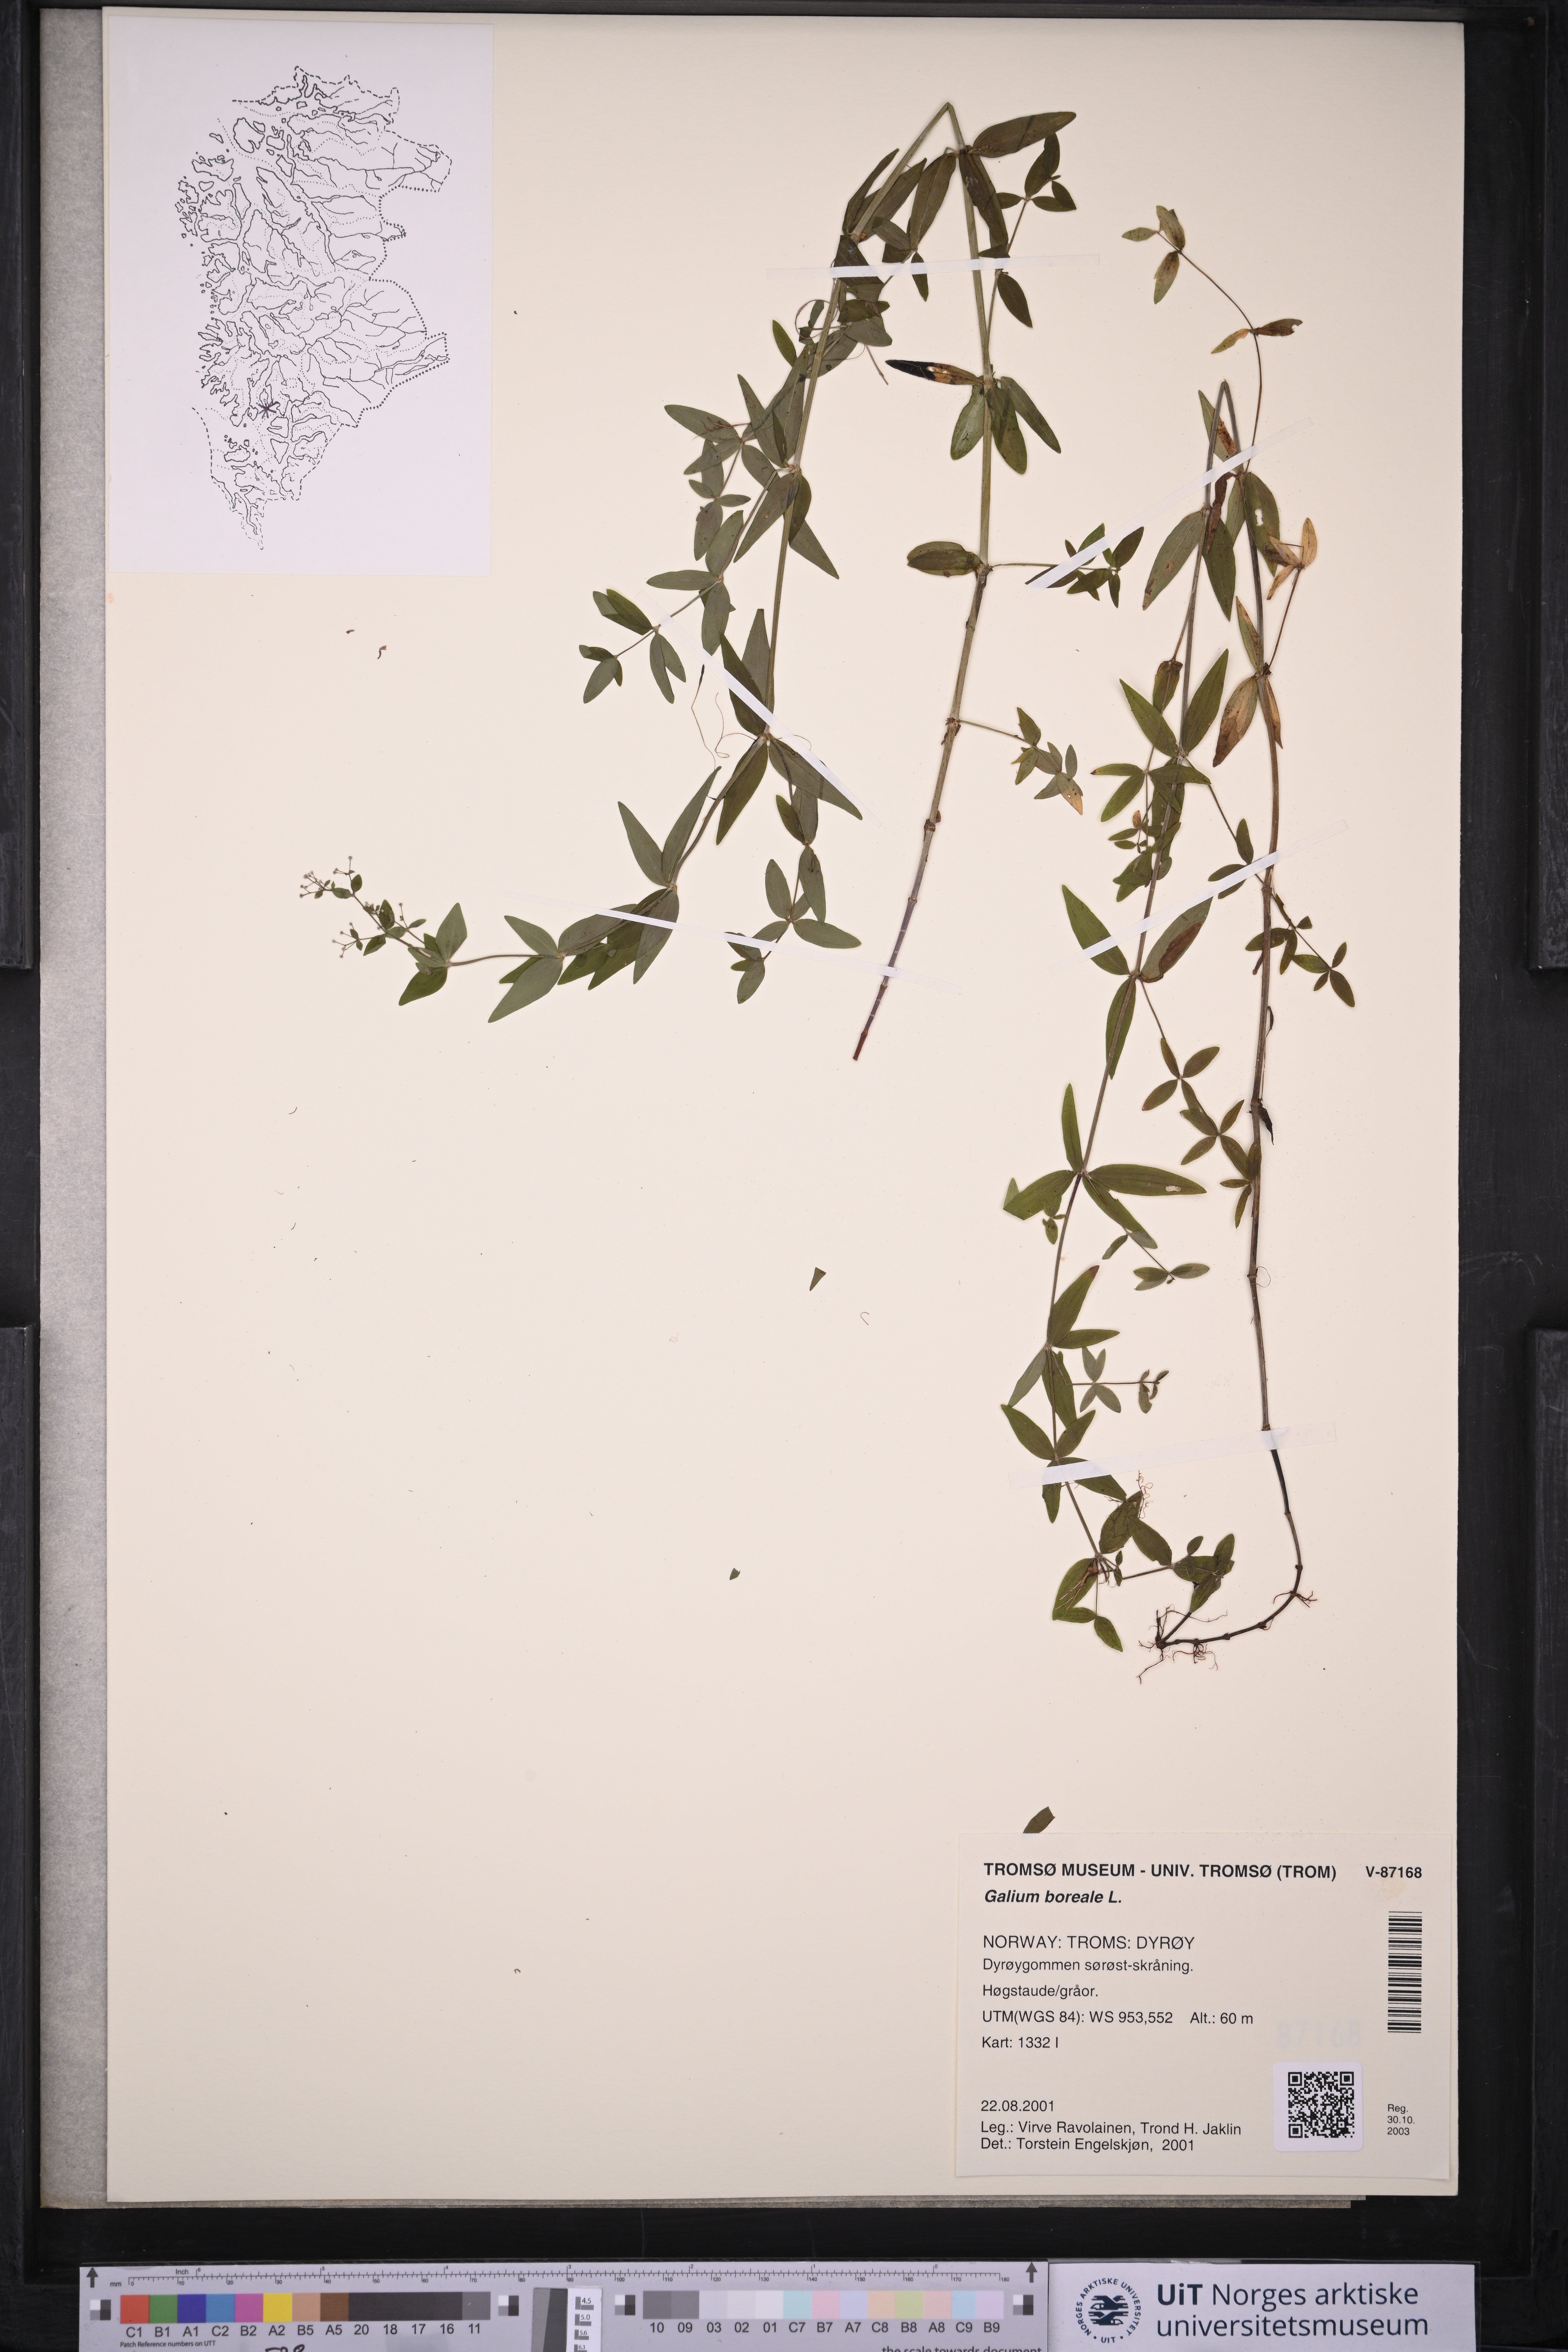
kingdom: Plantae
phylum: Tracheophyta
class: Magnoliopsida
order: Gentianales
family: Rubiaceae
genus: Galium
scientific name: Galium boreale
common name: Northern bedstraw
